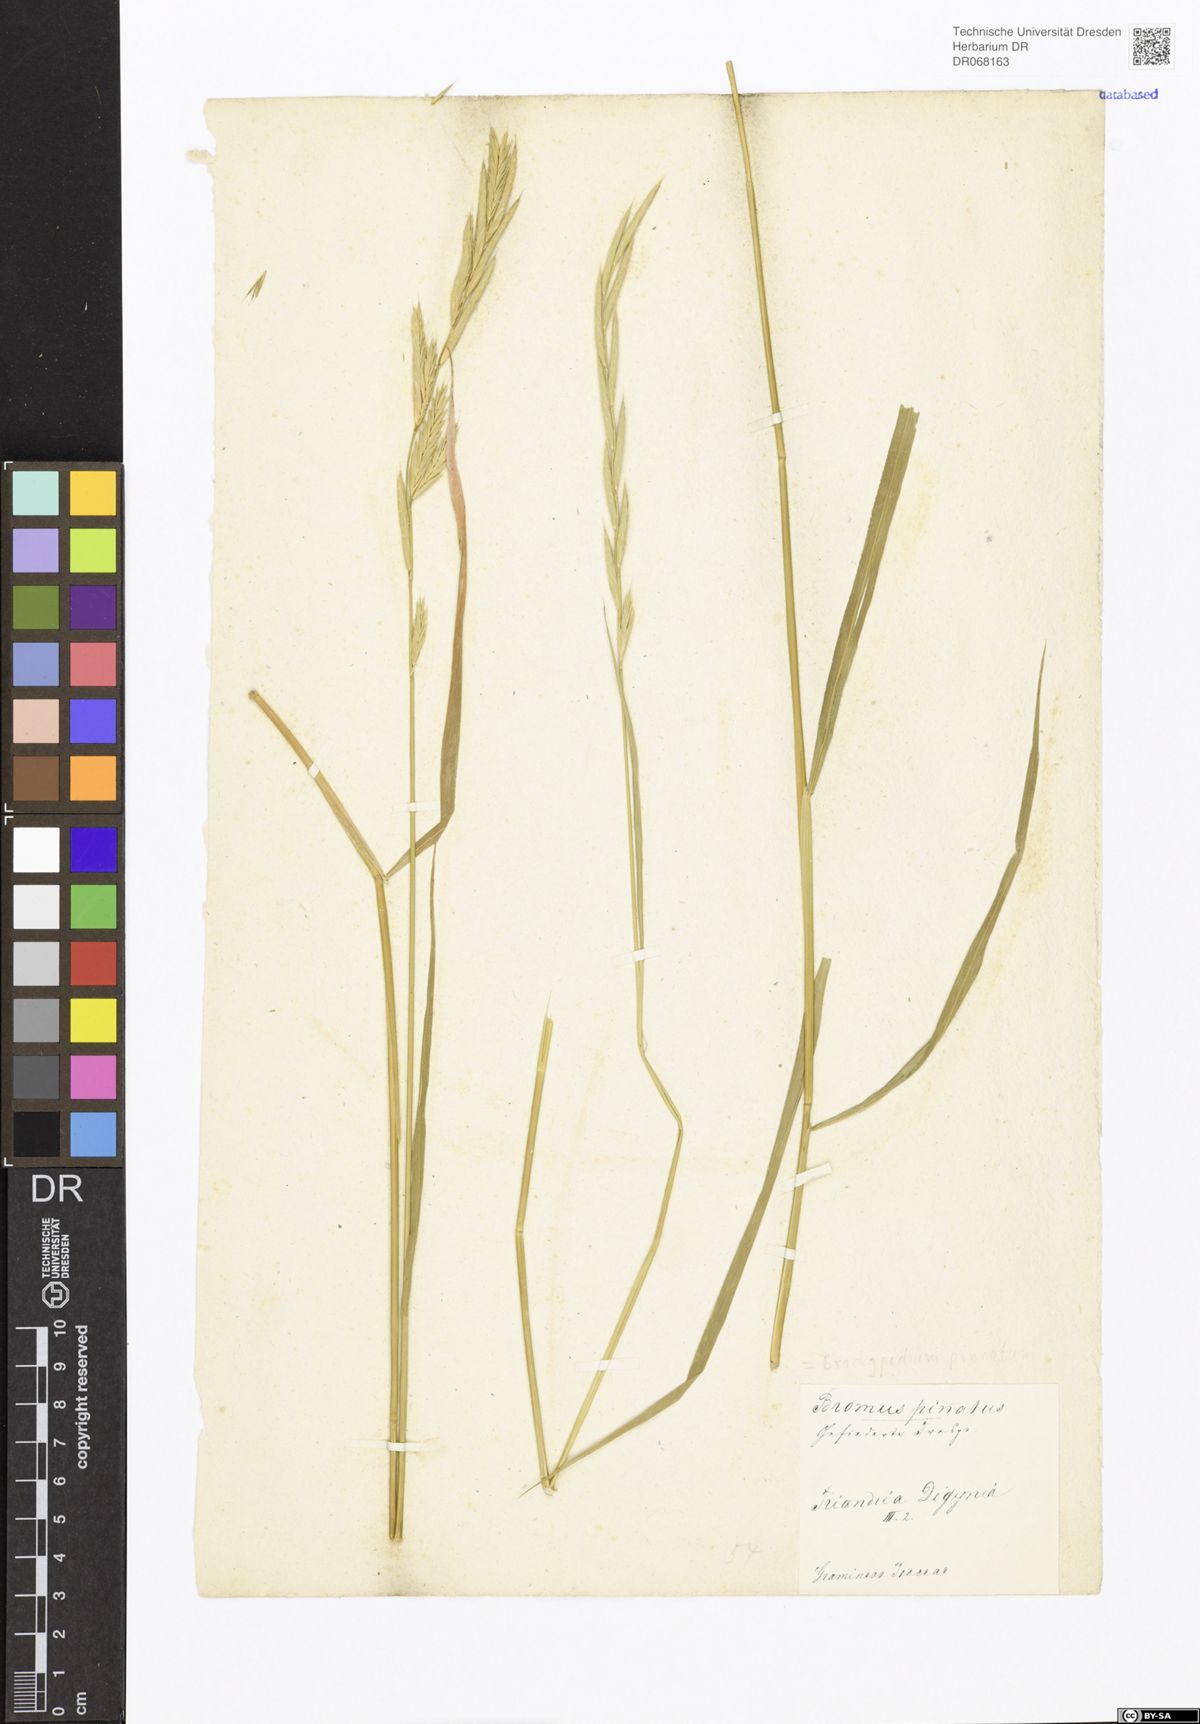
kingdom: Plantae
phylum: Tracheophyta
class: Liliopsida
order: Poales
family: Poaceae
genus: Brachypodium
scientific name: Brachypodium pinnatum
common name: Tor grass
